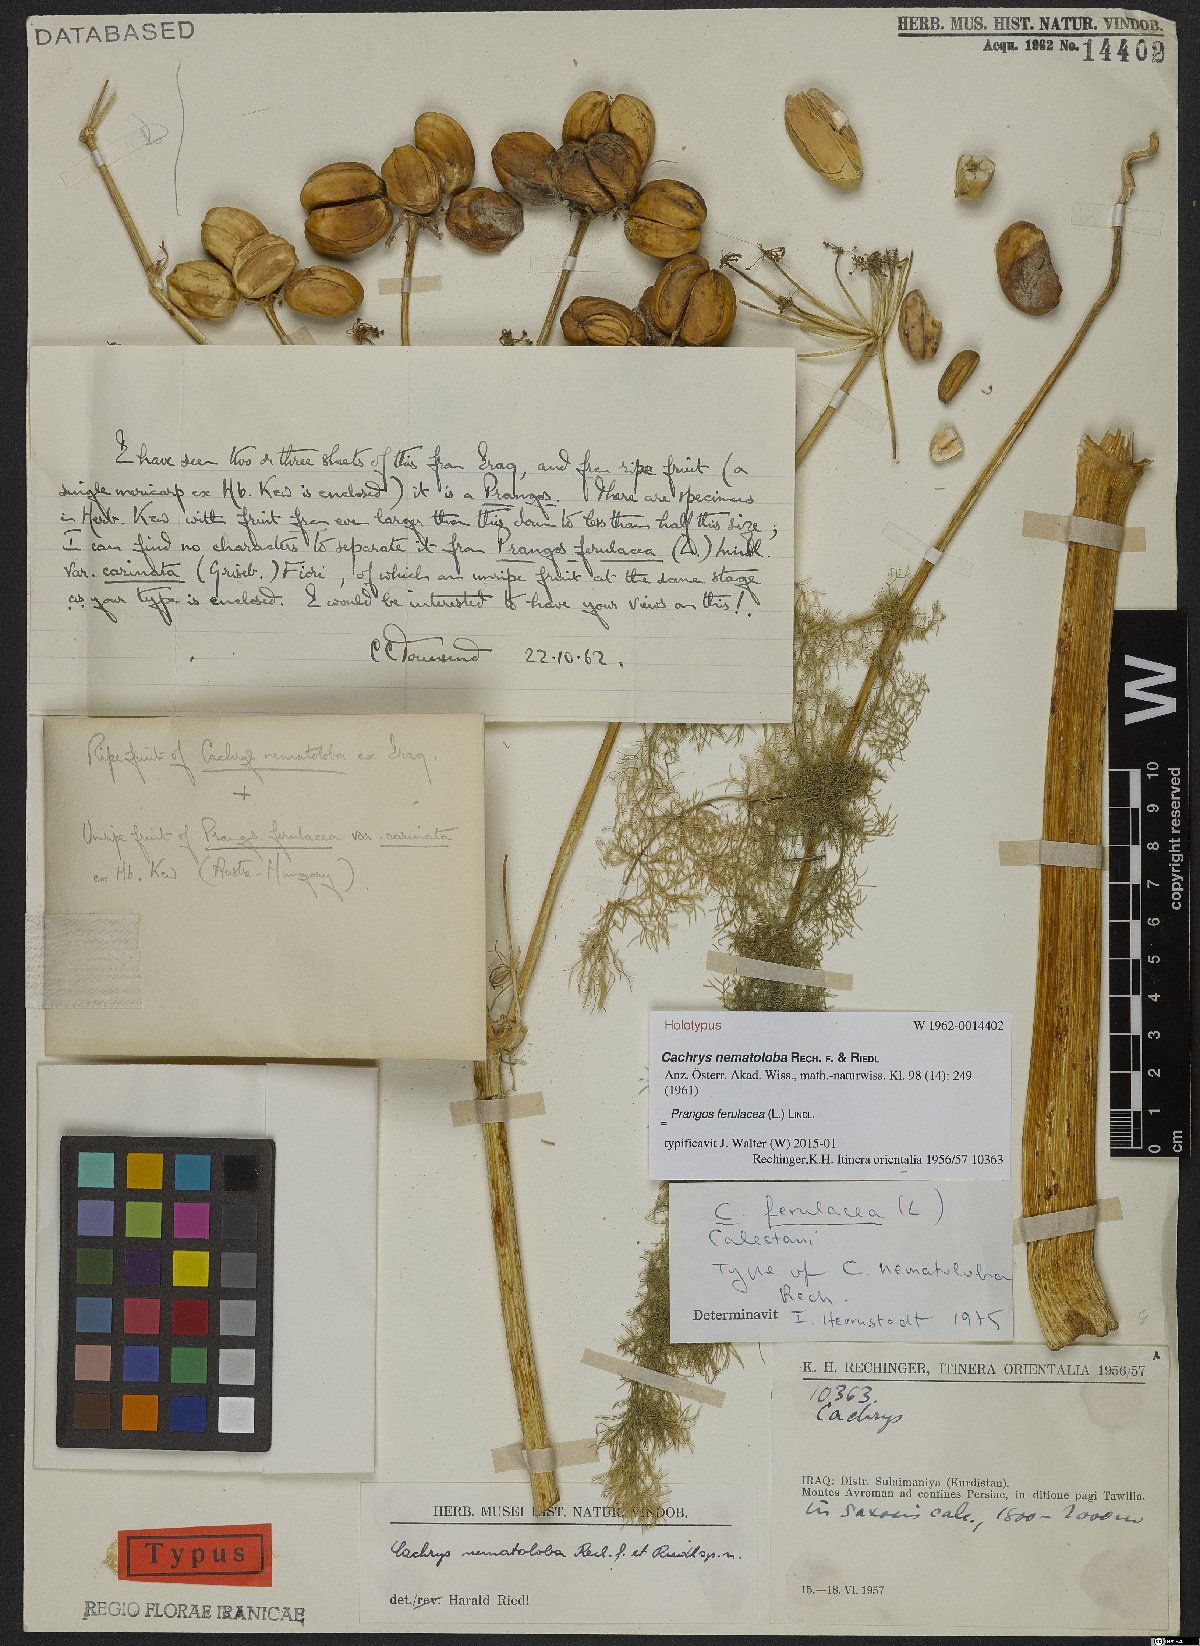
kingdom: Plantae
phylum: Tracheophyta
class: Magnoliopsida
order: Apiales
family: Apiaceae
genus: Prangos
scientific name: Prangos ferulacea
